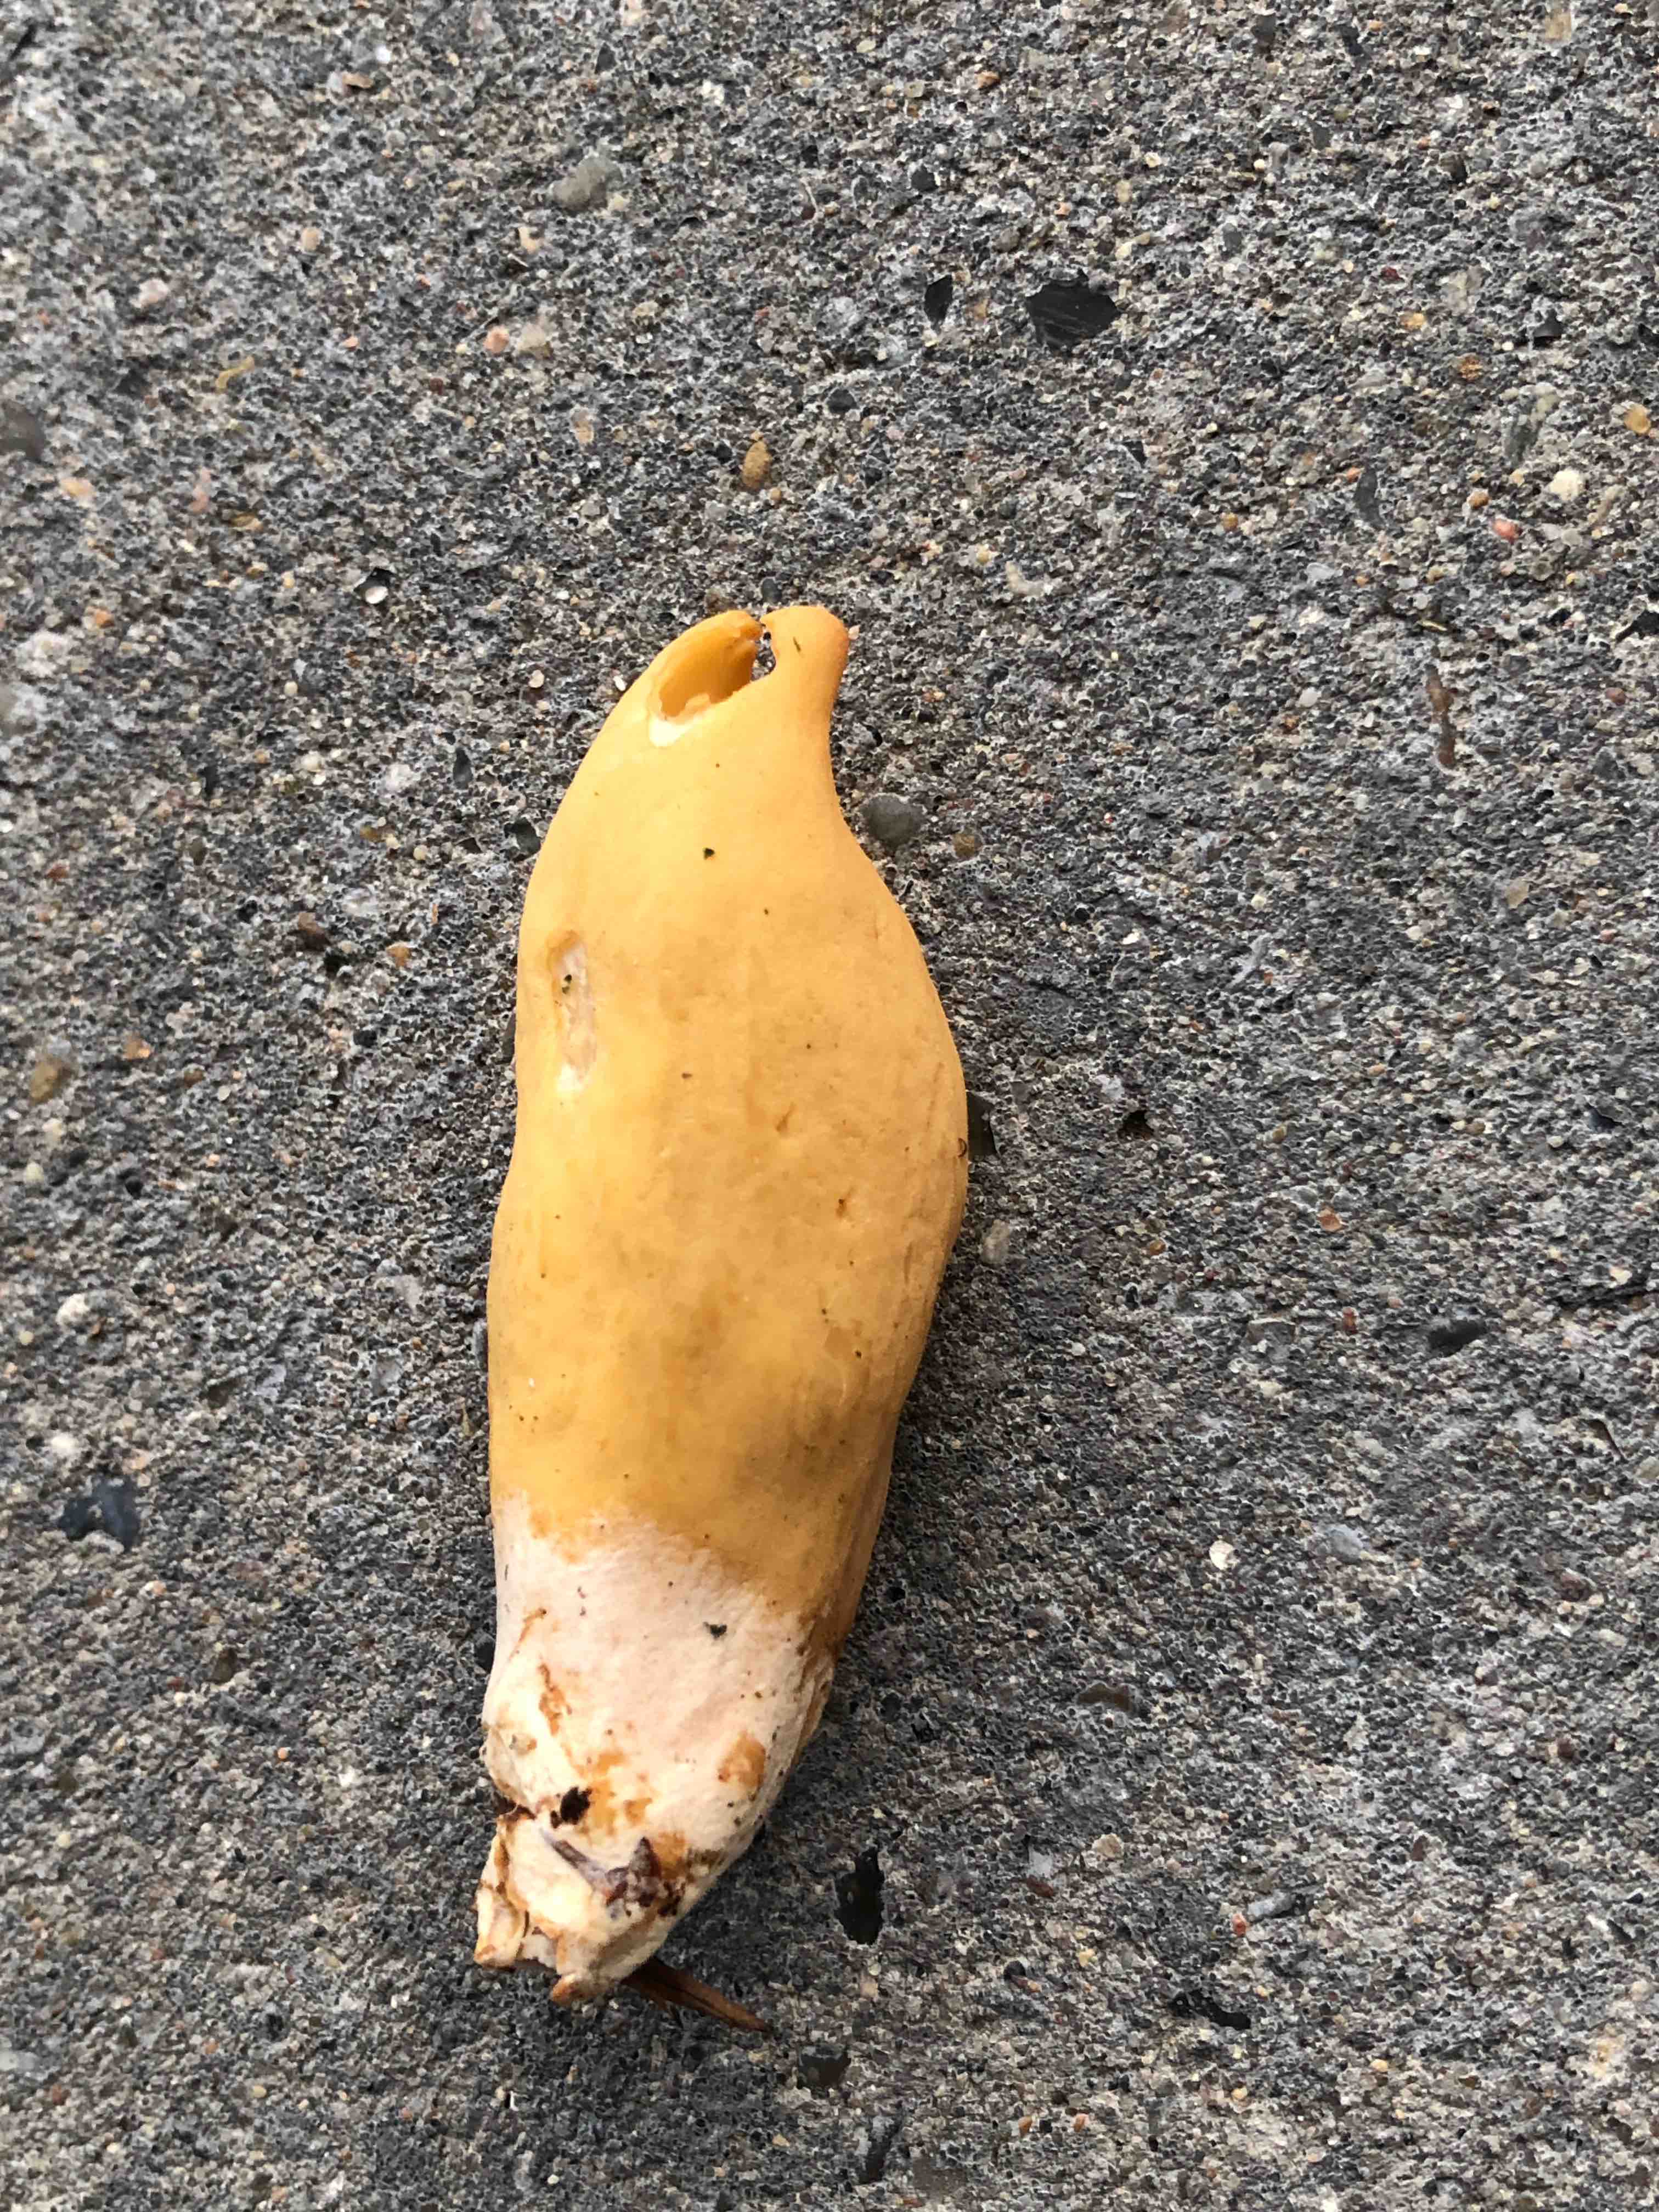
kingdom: Fungi
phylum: Ascomycota
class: Pezizomycetes
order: Pezizales
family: Otideaceae
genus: Otidea
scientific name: Otidea onotica
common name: æsel-ørebæger
